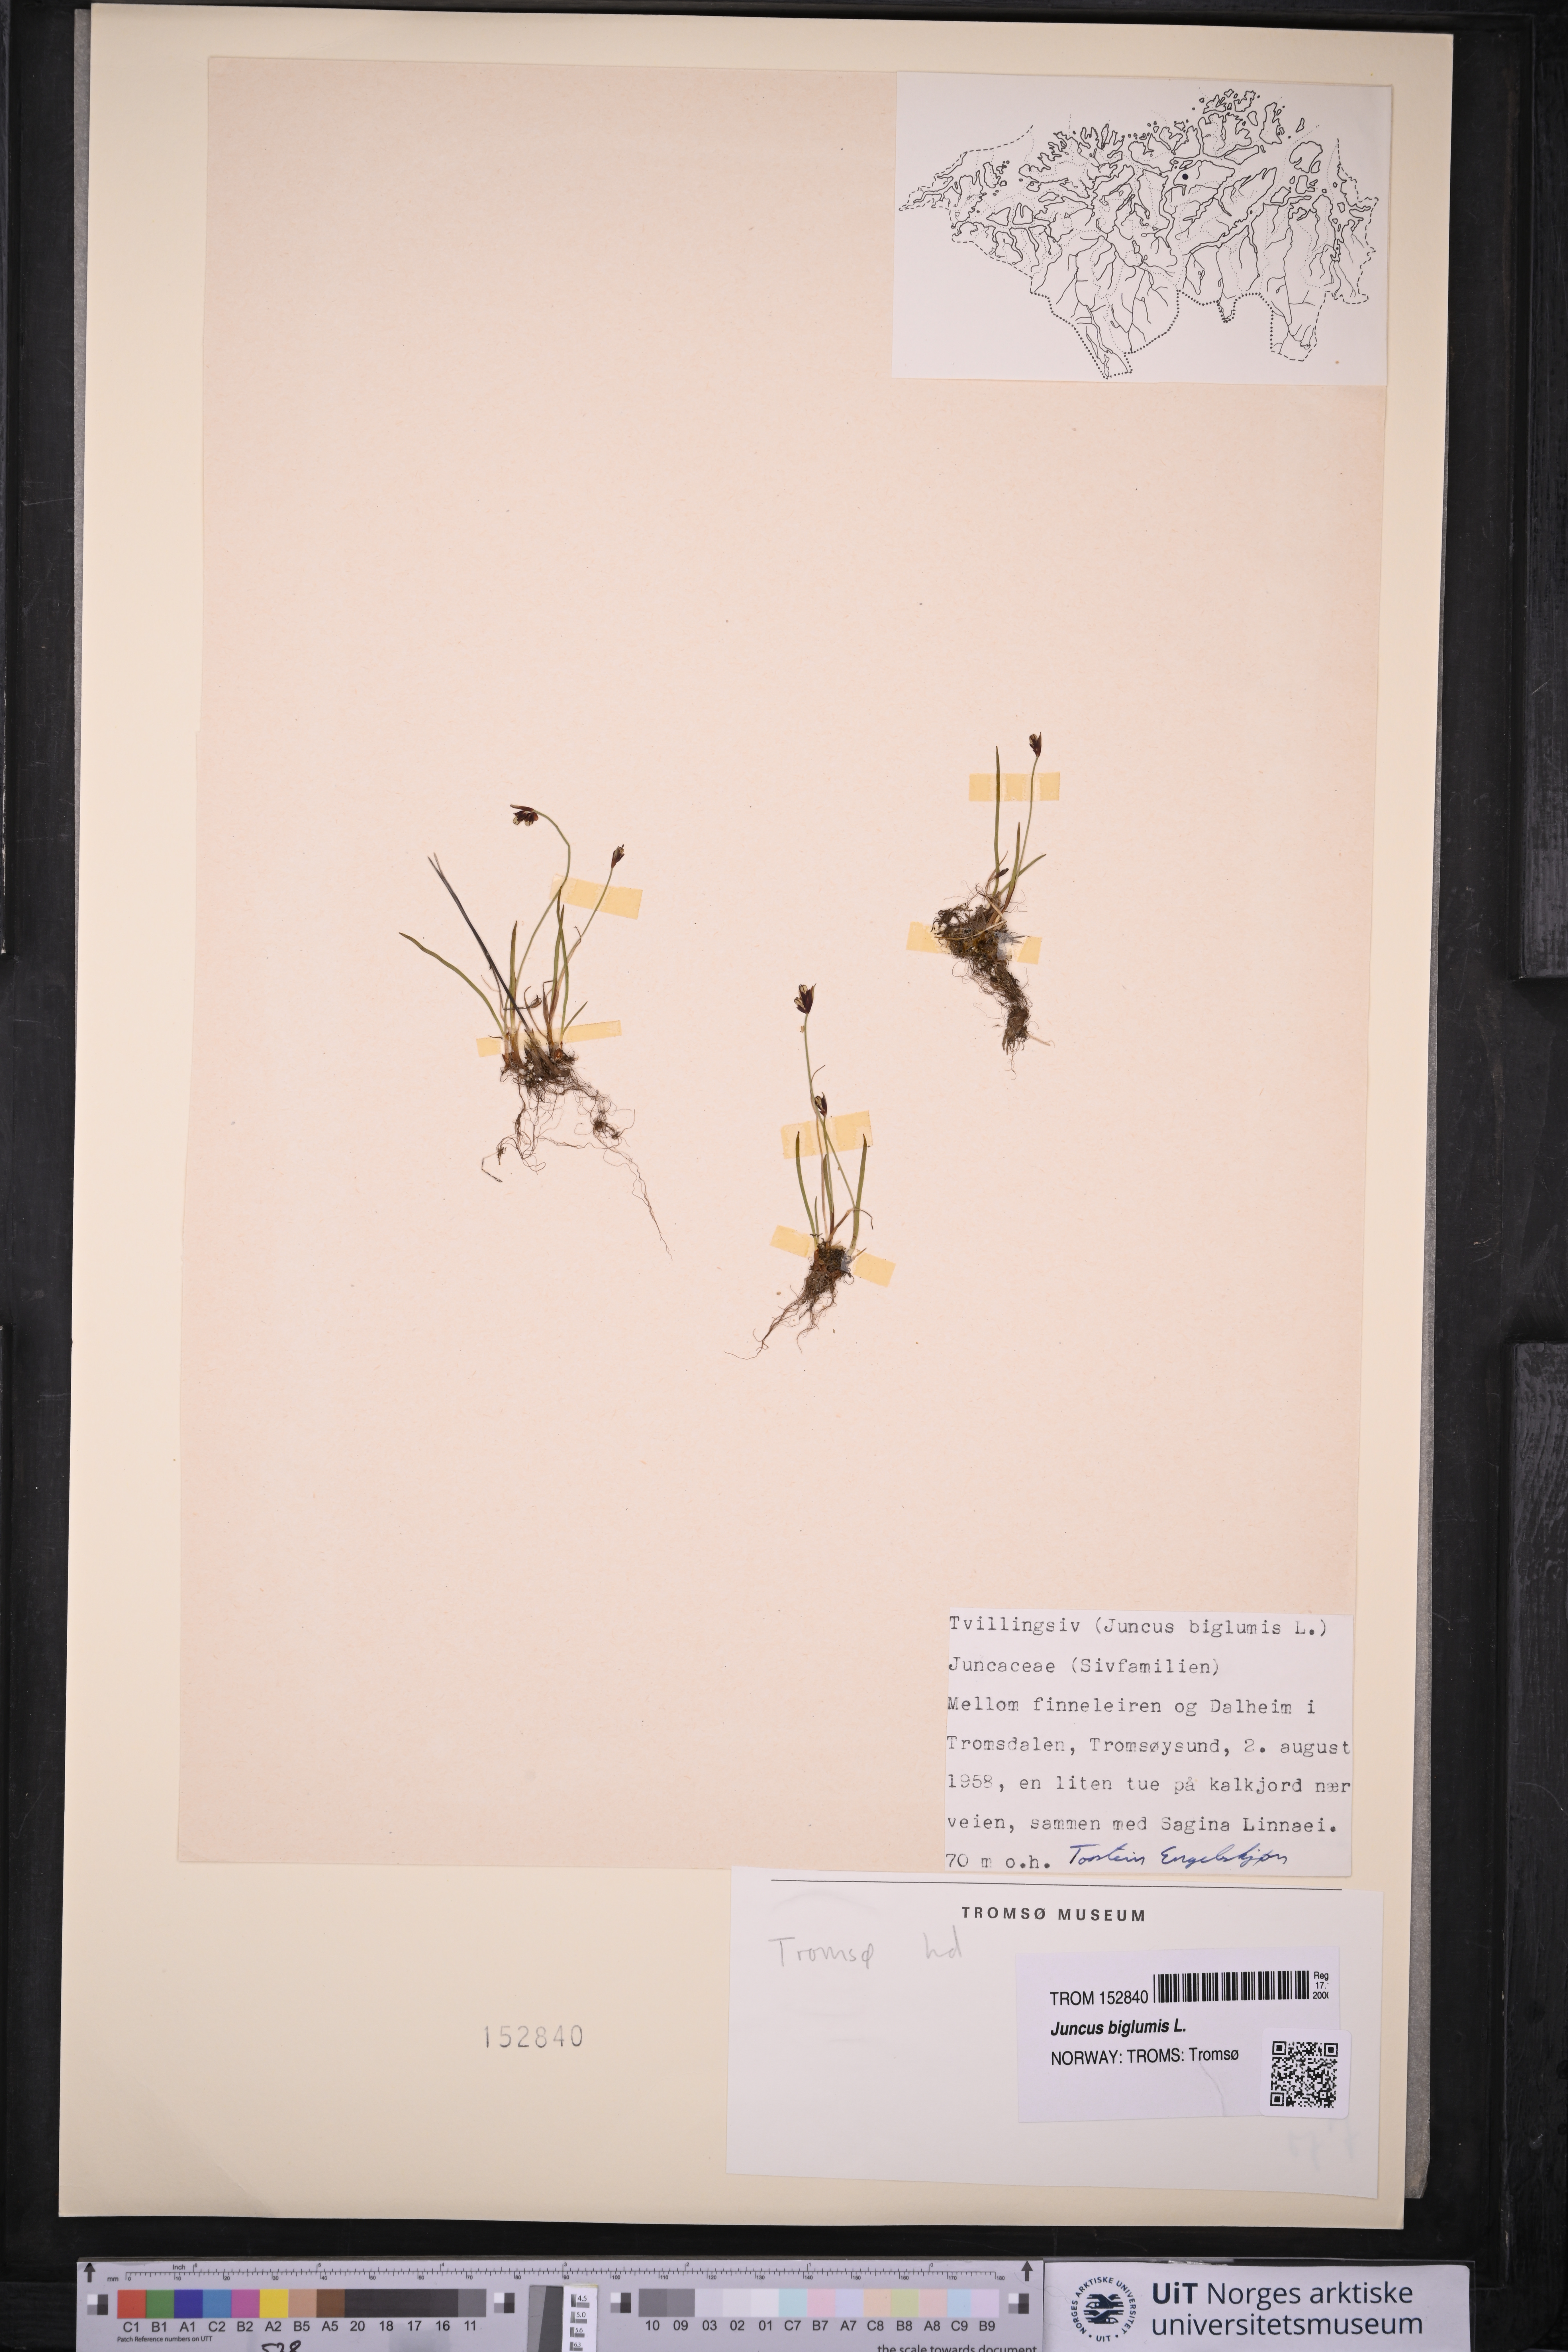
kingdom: Plantae
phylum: Tracheophyta
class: Liliopsida
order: Poales
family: Juncaceae
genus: Juncus
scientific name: Juncus biglumis
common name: Two-flowered rush
